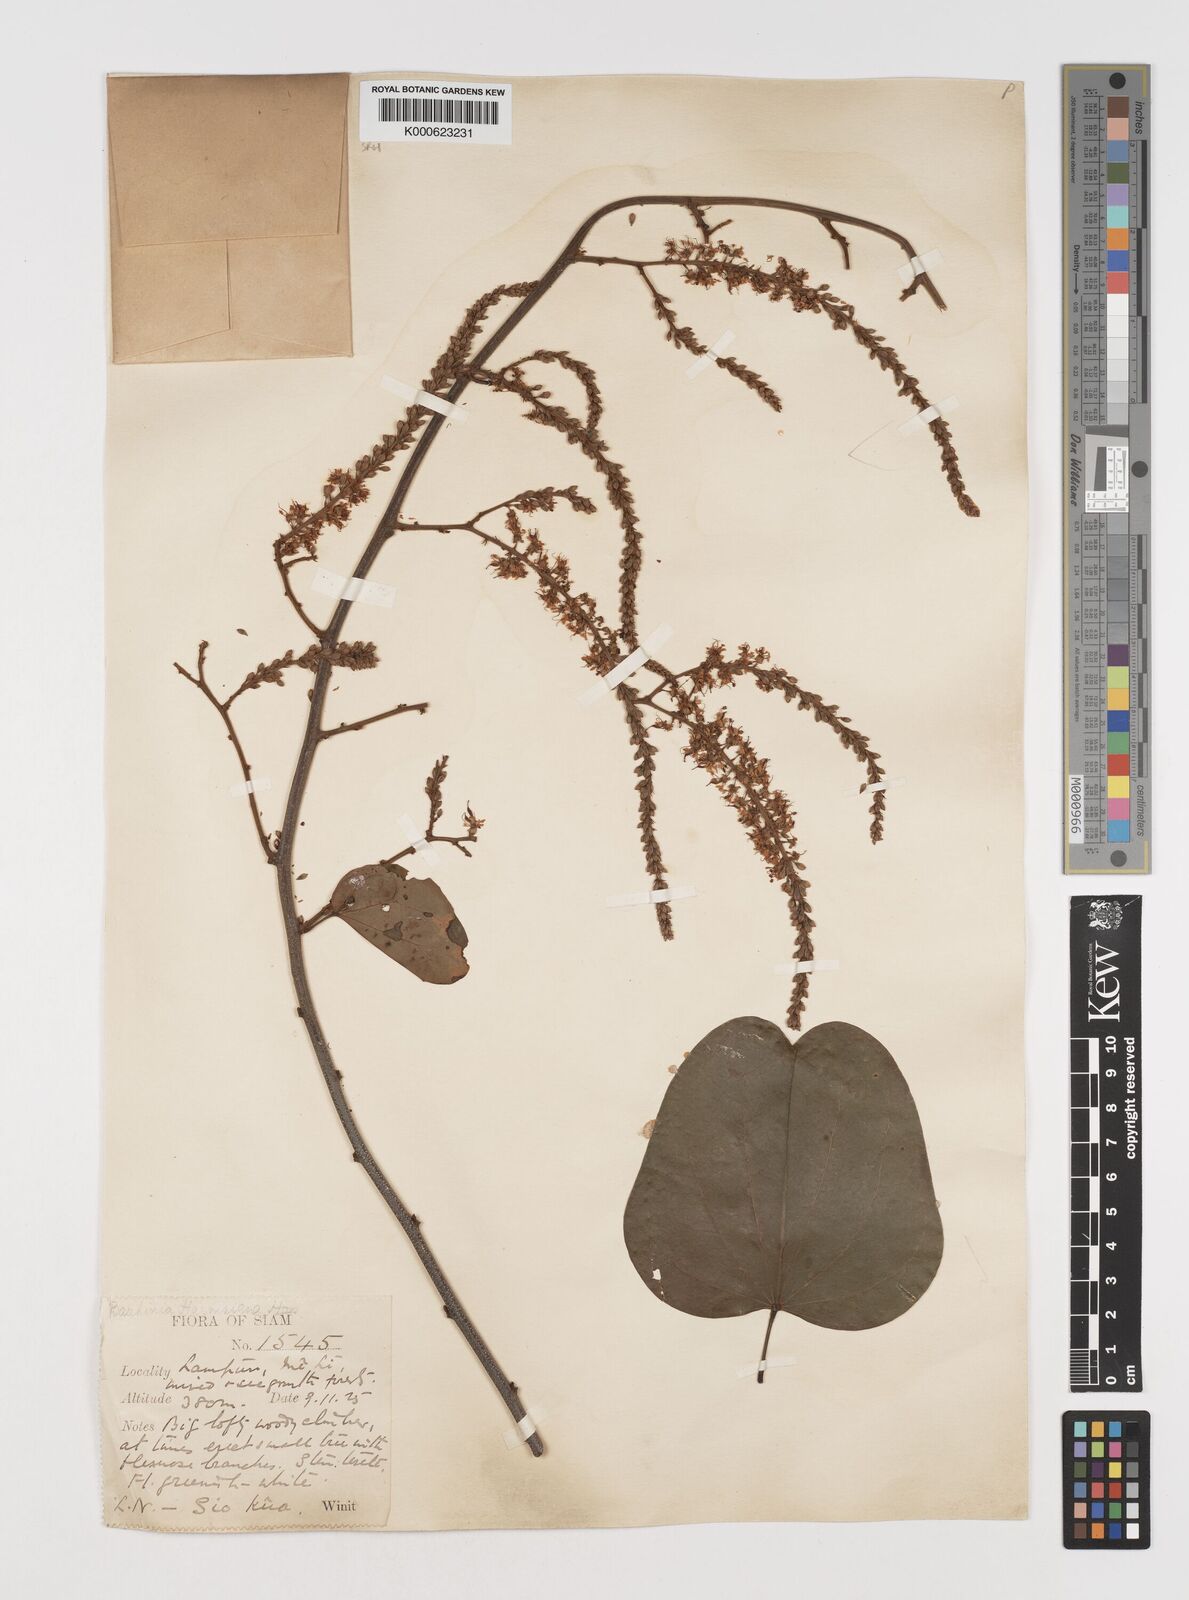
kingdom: Plantae
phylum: Tracheophyta
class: Magnoliopsida
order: Fabales
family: Fabaceae
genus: Phanera
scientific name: Phanera harmsiana
